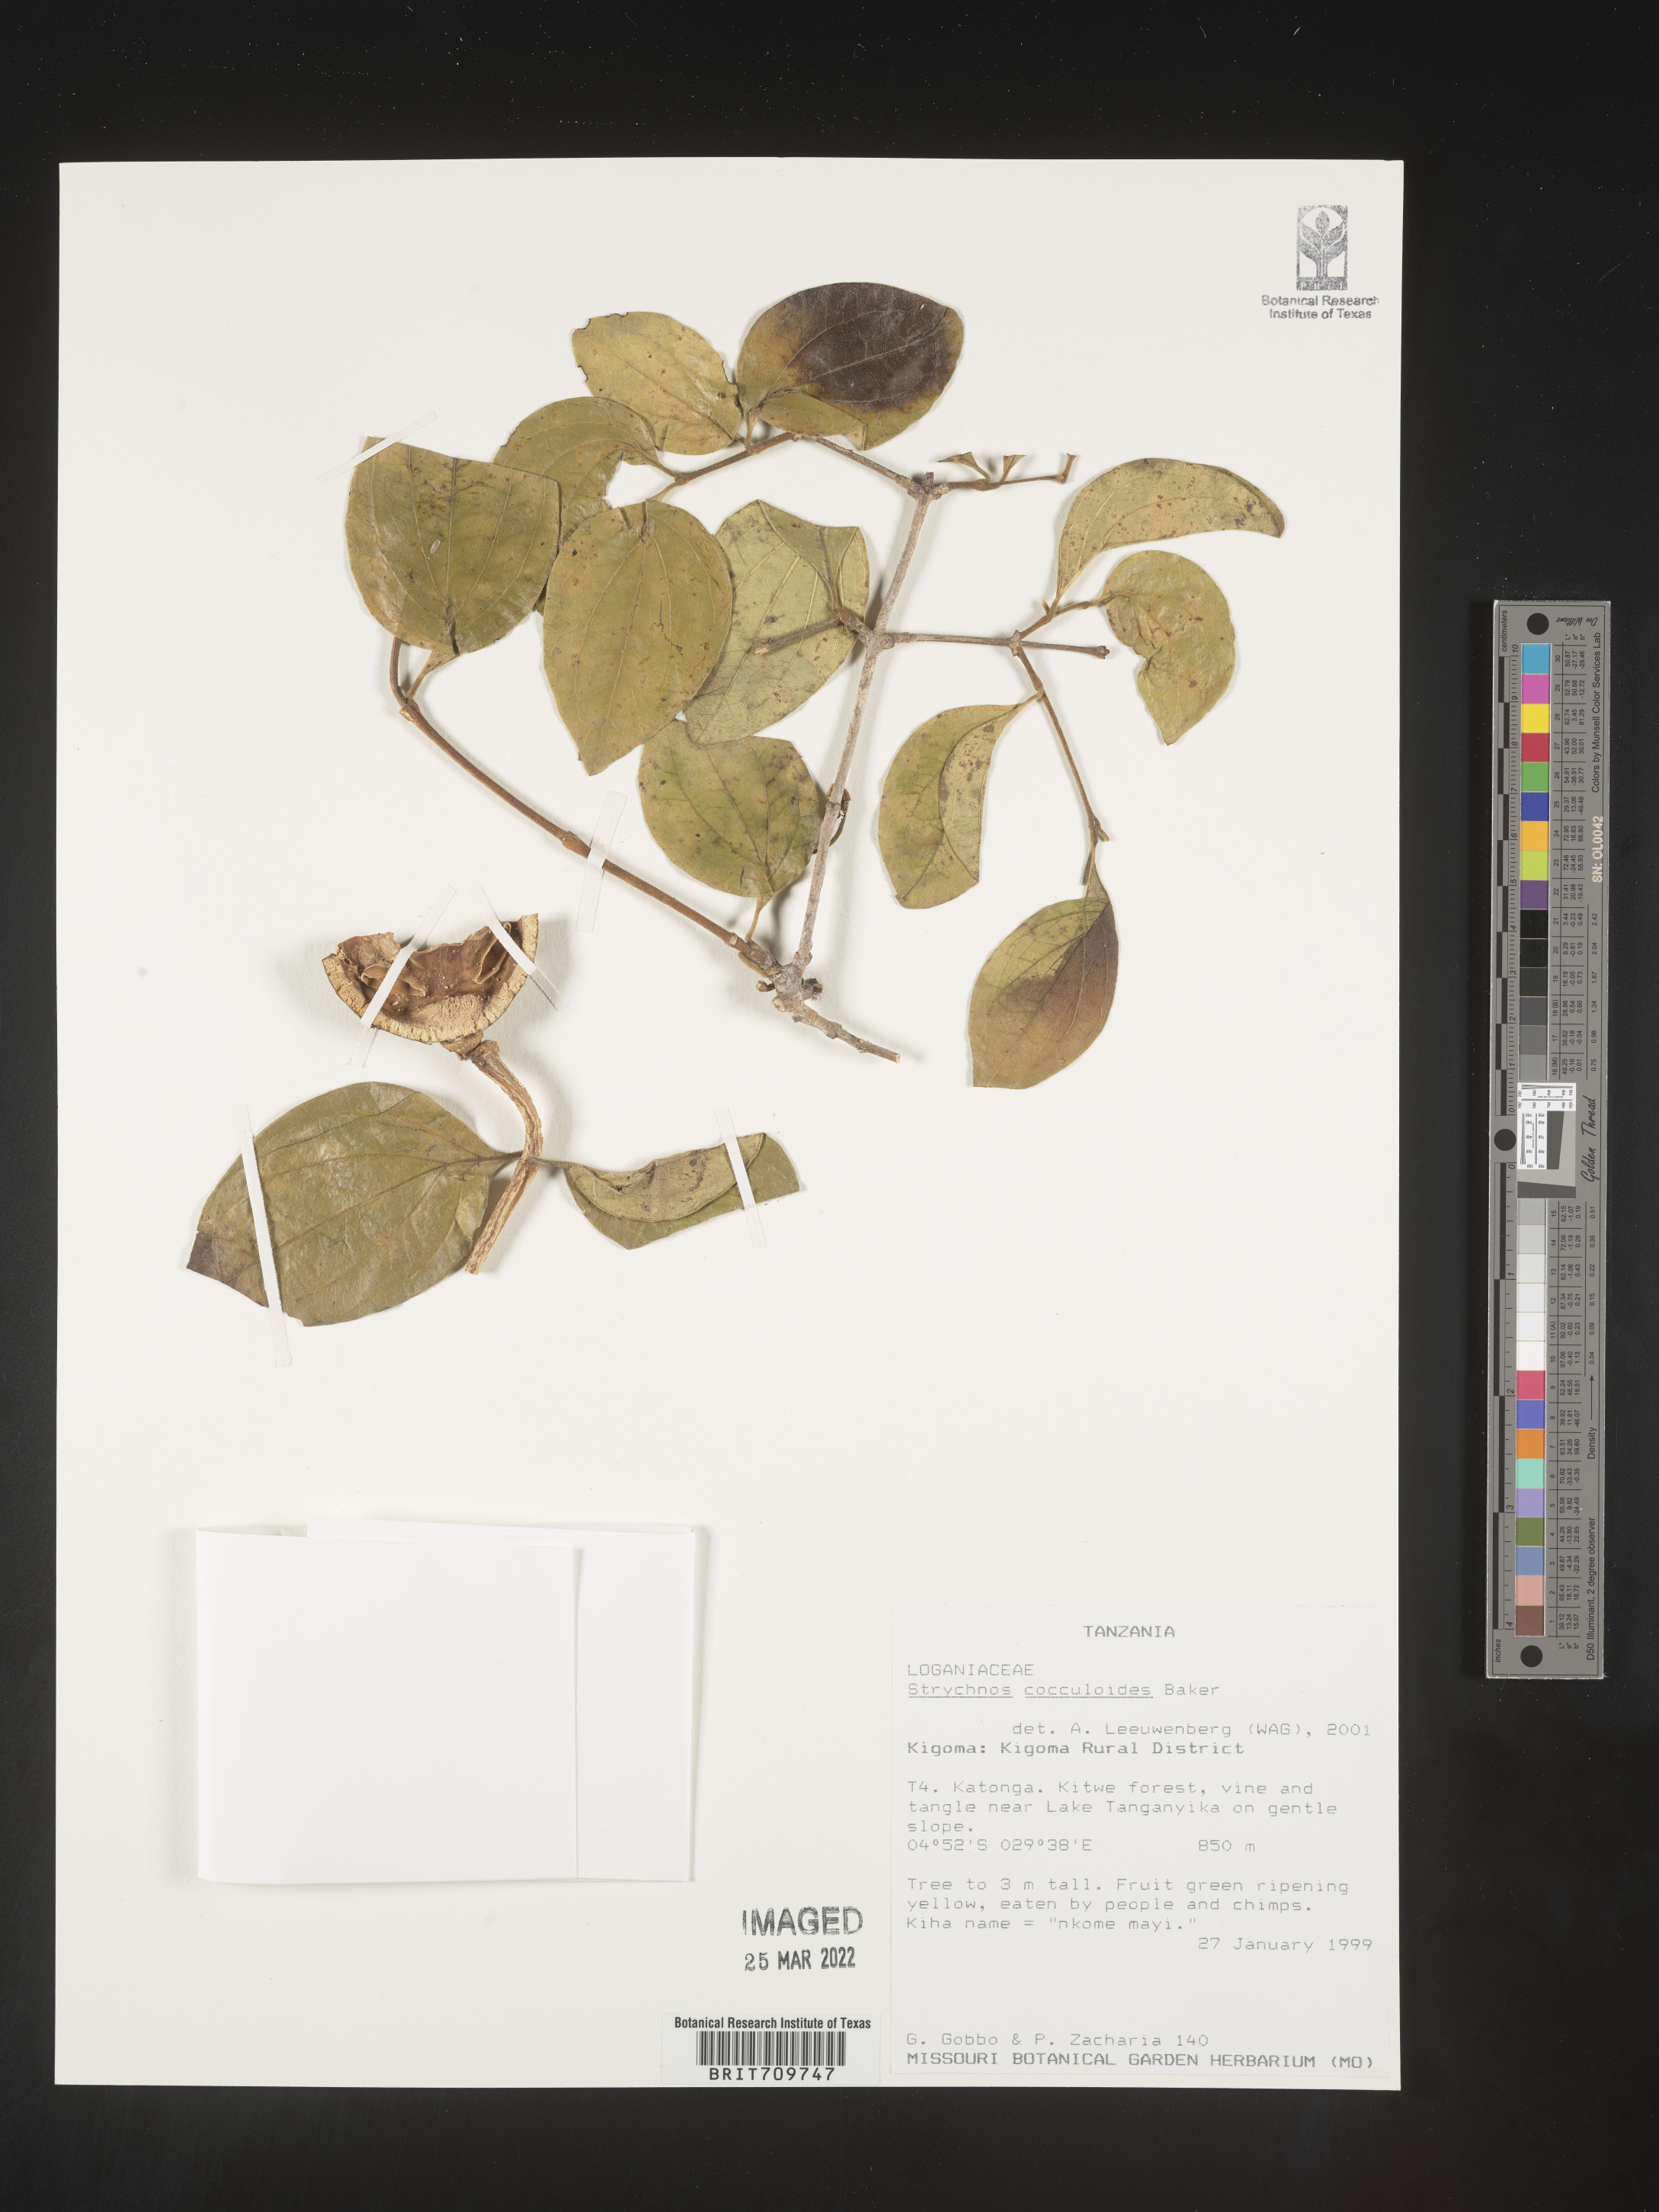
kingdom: Plantae
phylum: Tracheophyta
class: Magnoliopsida
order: Gentianales
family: Loganiaceae
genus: Strychnos
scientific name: Strychnos
